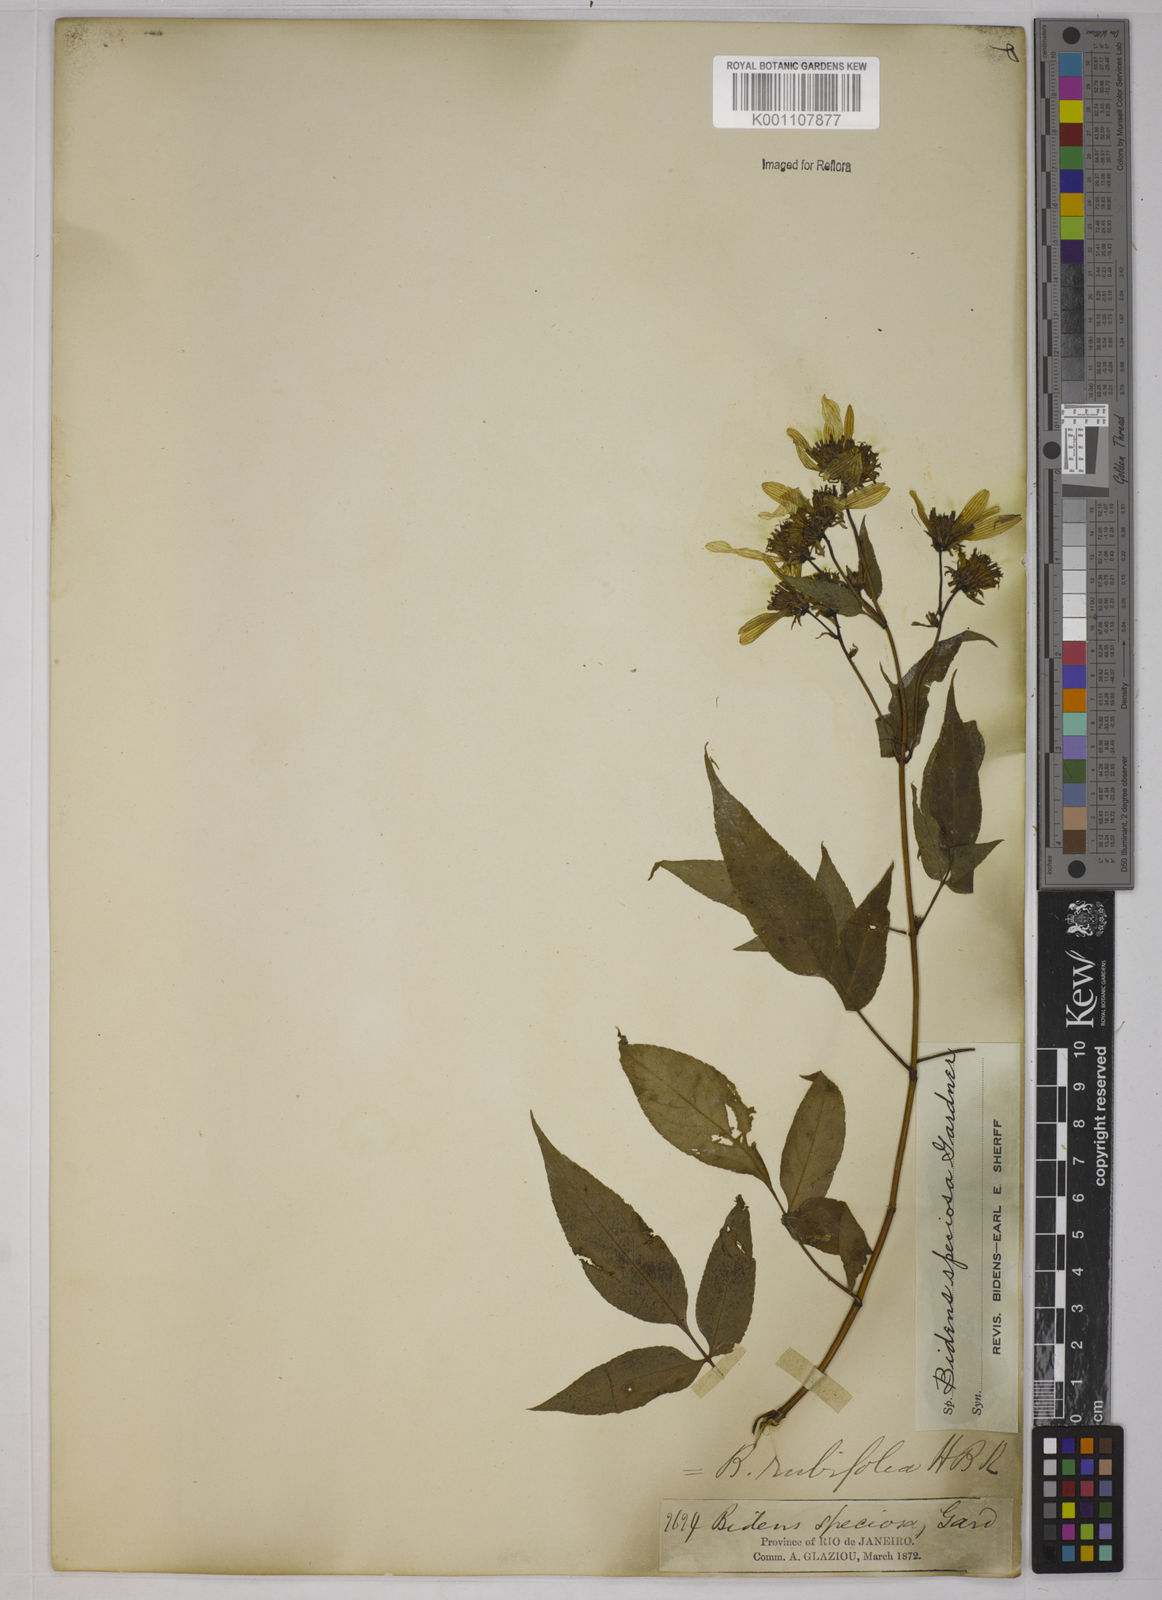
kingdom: Plantae
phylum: Tracheophyta
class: Magnoliopsida
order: Asterales
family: Asteraceae
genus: Bidens
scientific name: Bidens segetum
